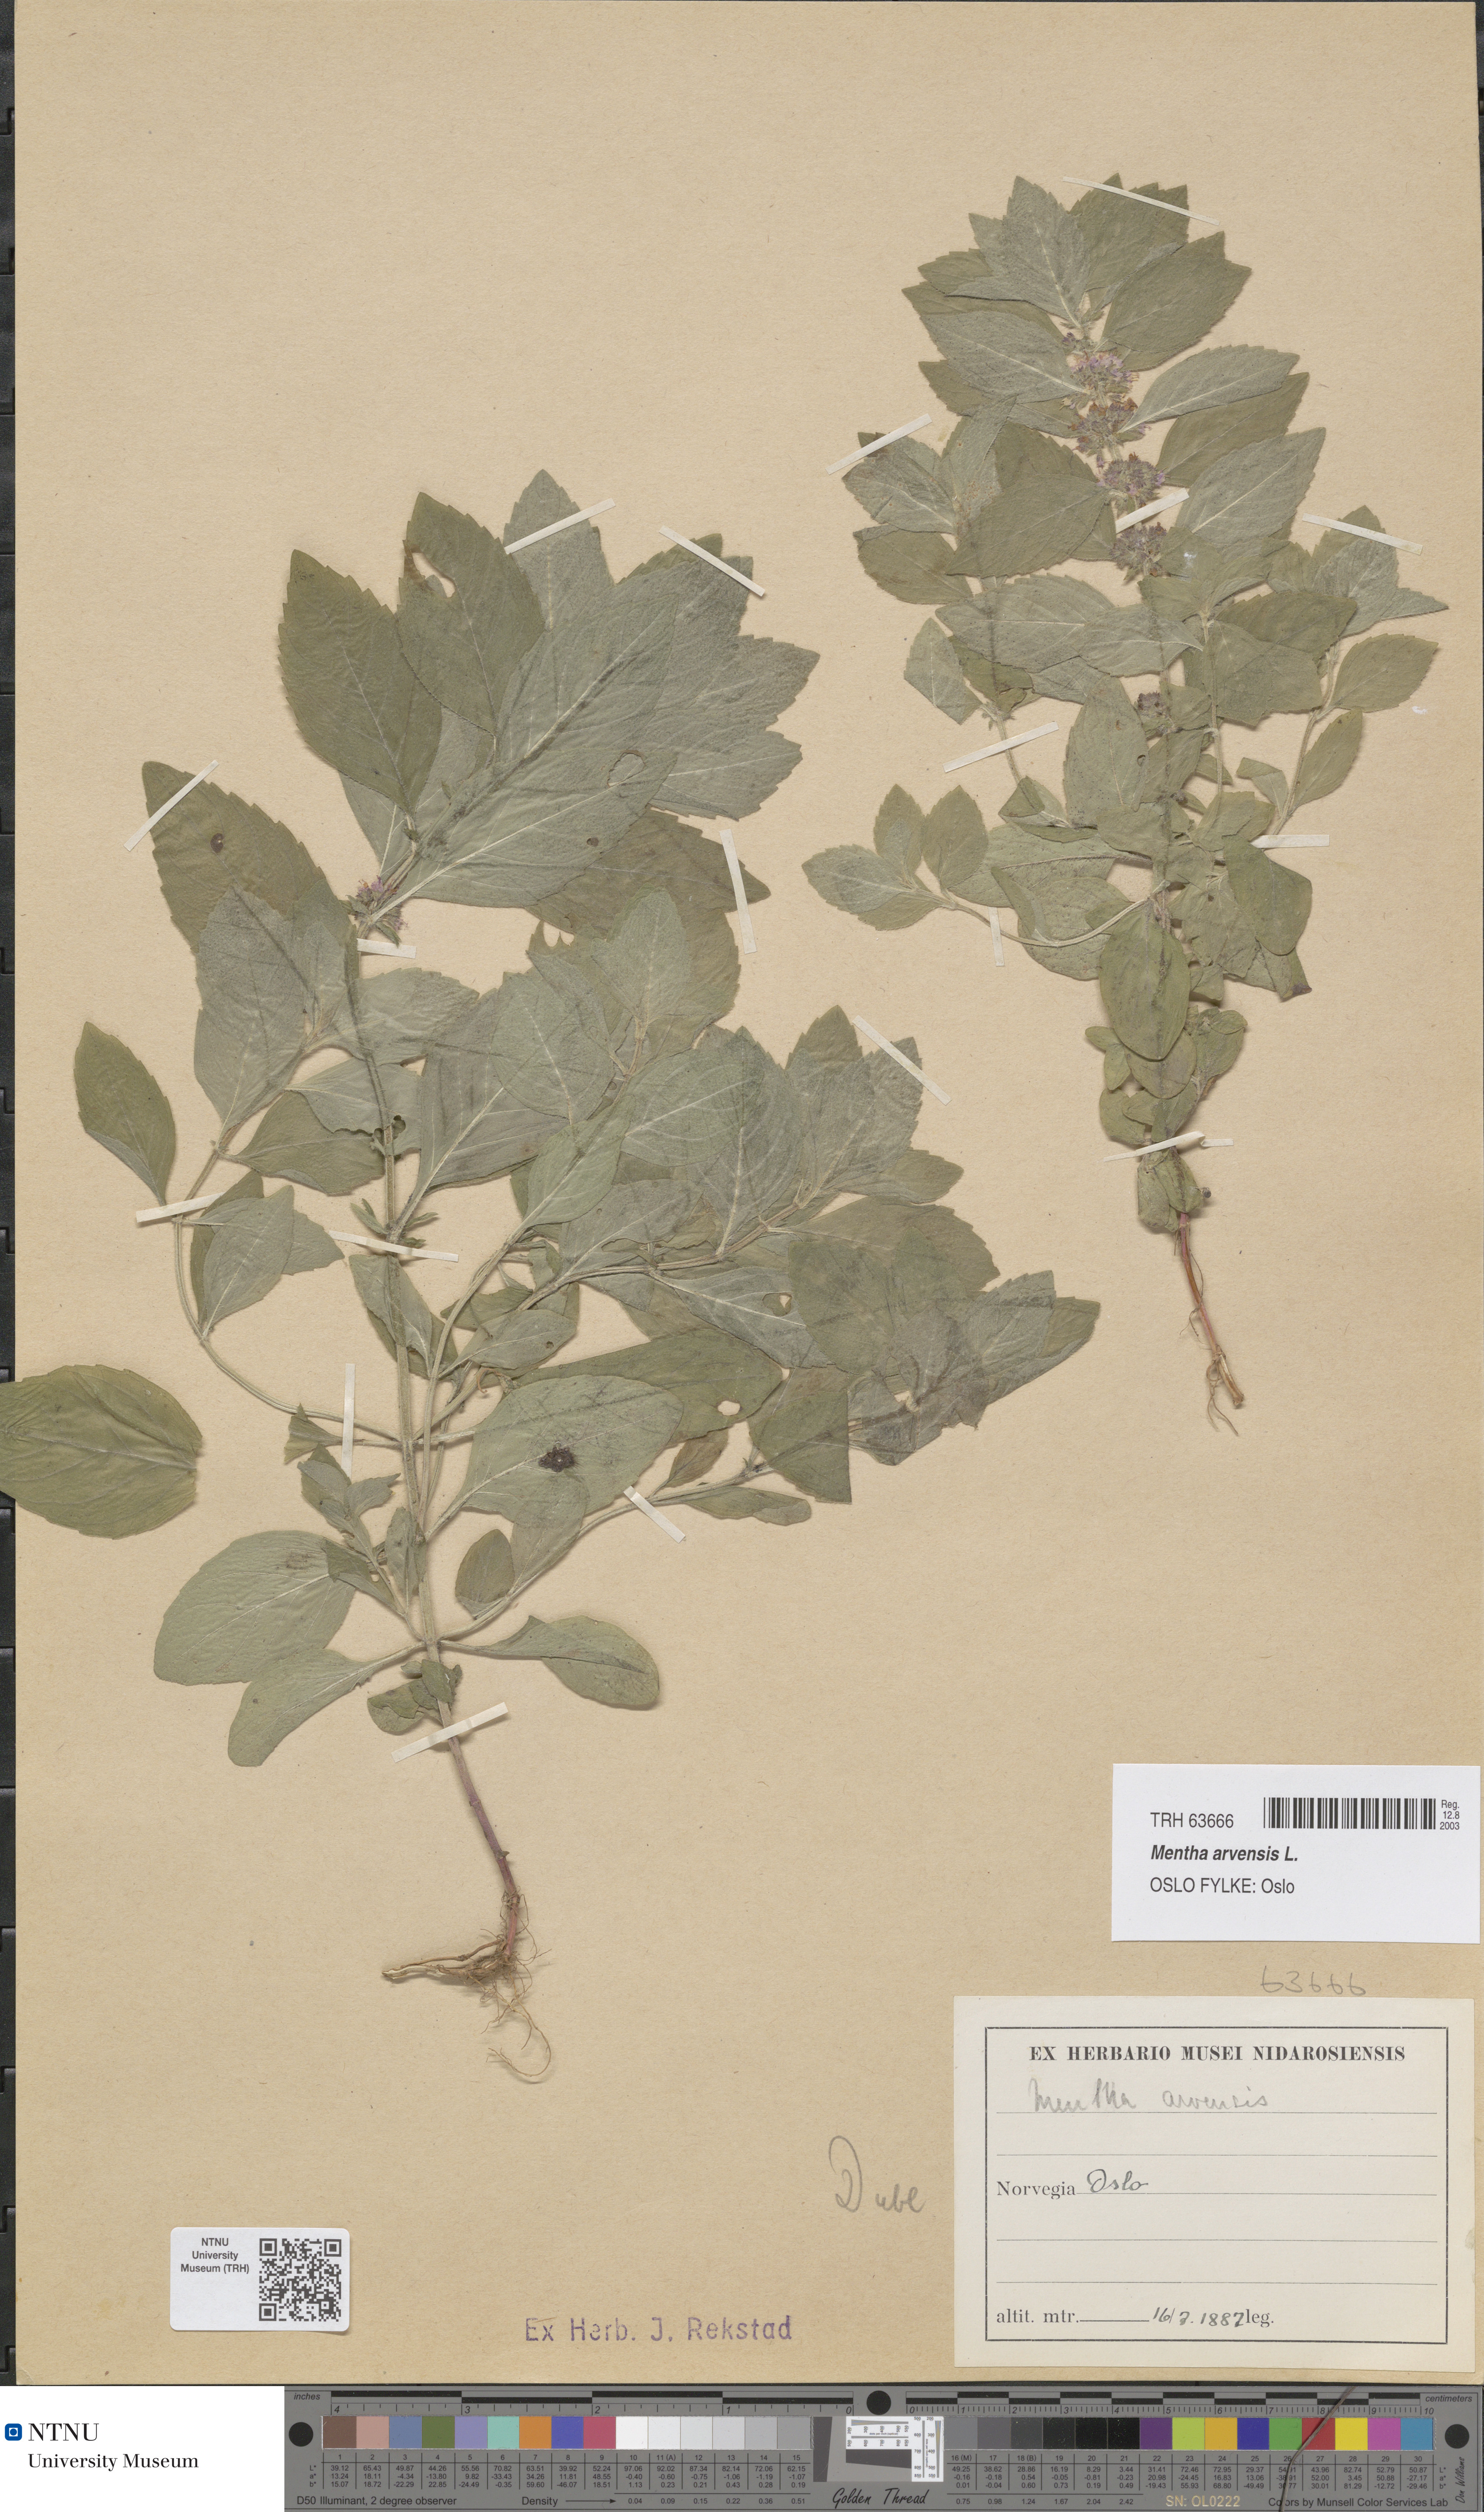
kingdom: Plantae
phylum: Tracheophyta
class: Magnoliopsida
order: Lamiales
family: Lamiaceae
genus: Mentha
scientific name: Mentha arvensis
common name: Corn mint
